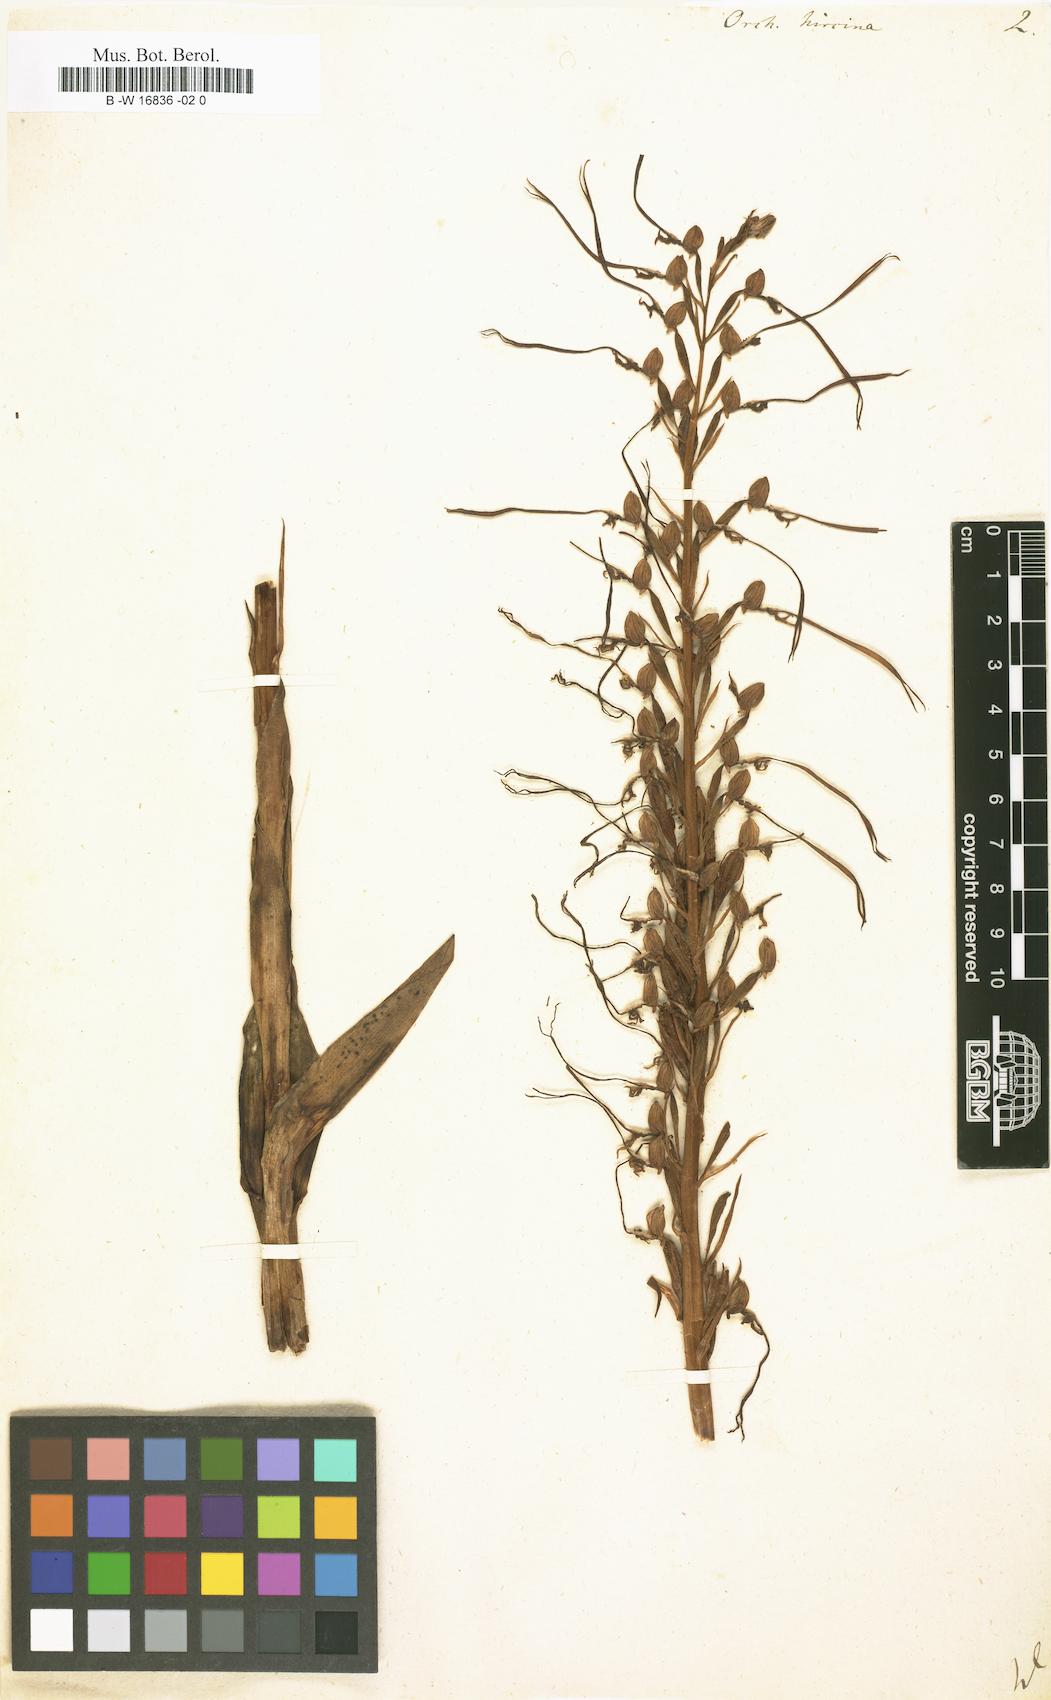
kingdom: Plantae
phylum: Tracheophyta
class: Liliopsida
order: Asparagales
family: Orchidaceae
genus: Himantoglossum
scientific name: Himantoglossum hircinum
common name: Lizard orchid
